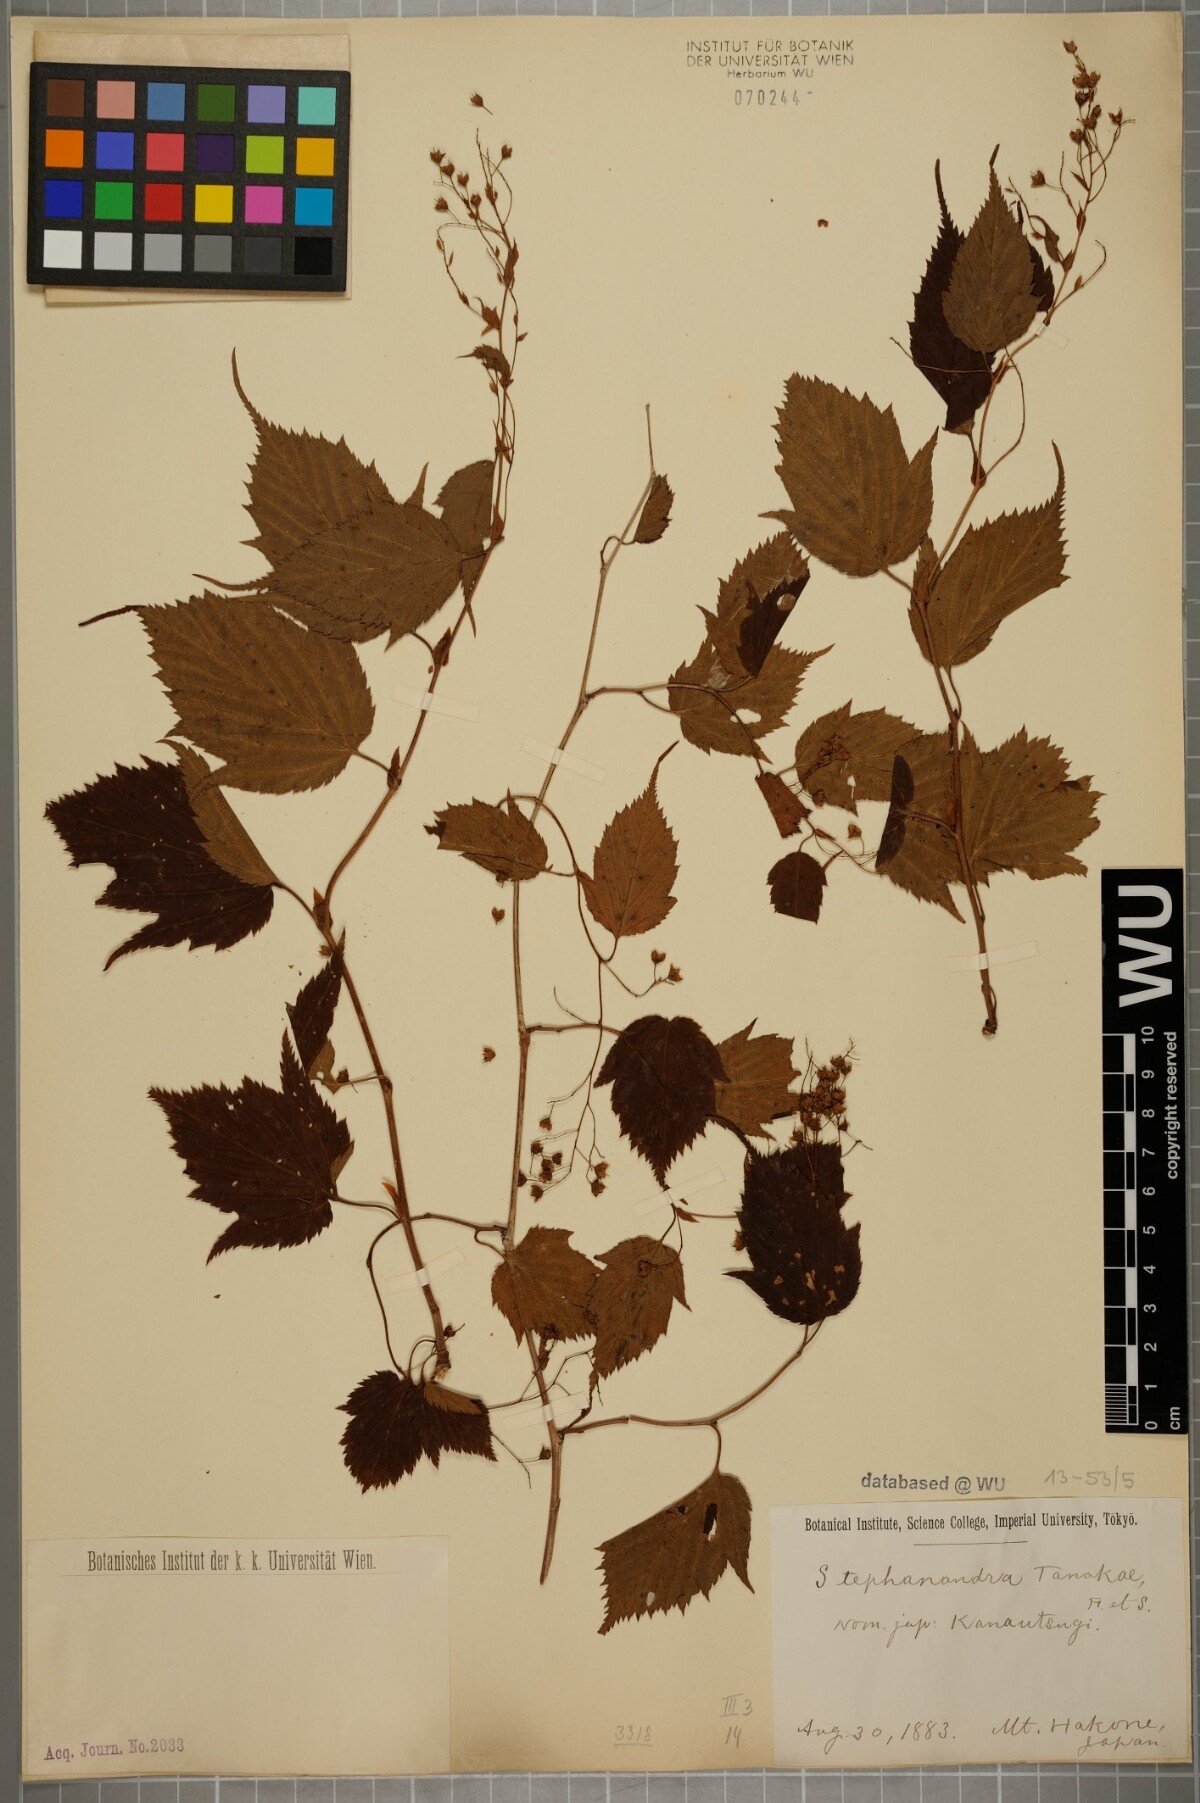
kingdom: Plantae
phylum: Tracheophyta
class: Magnoliopsida
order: Rosales
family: Rosaceae
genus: Neillia
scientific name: Neillia tanakae
